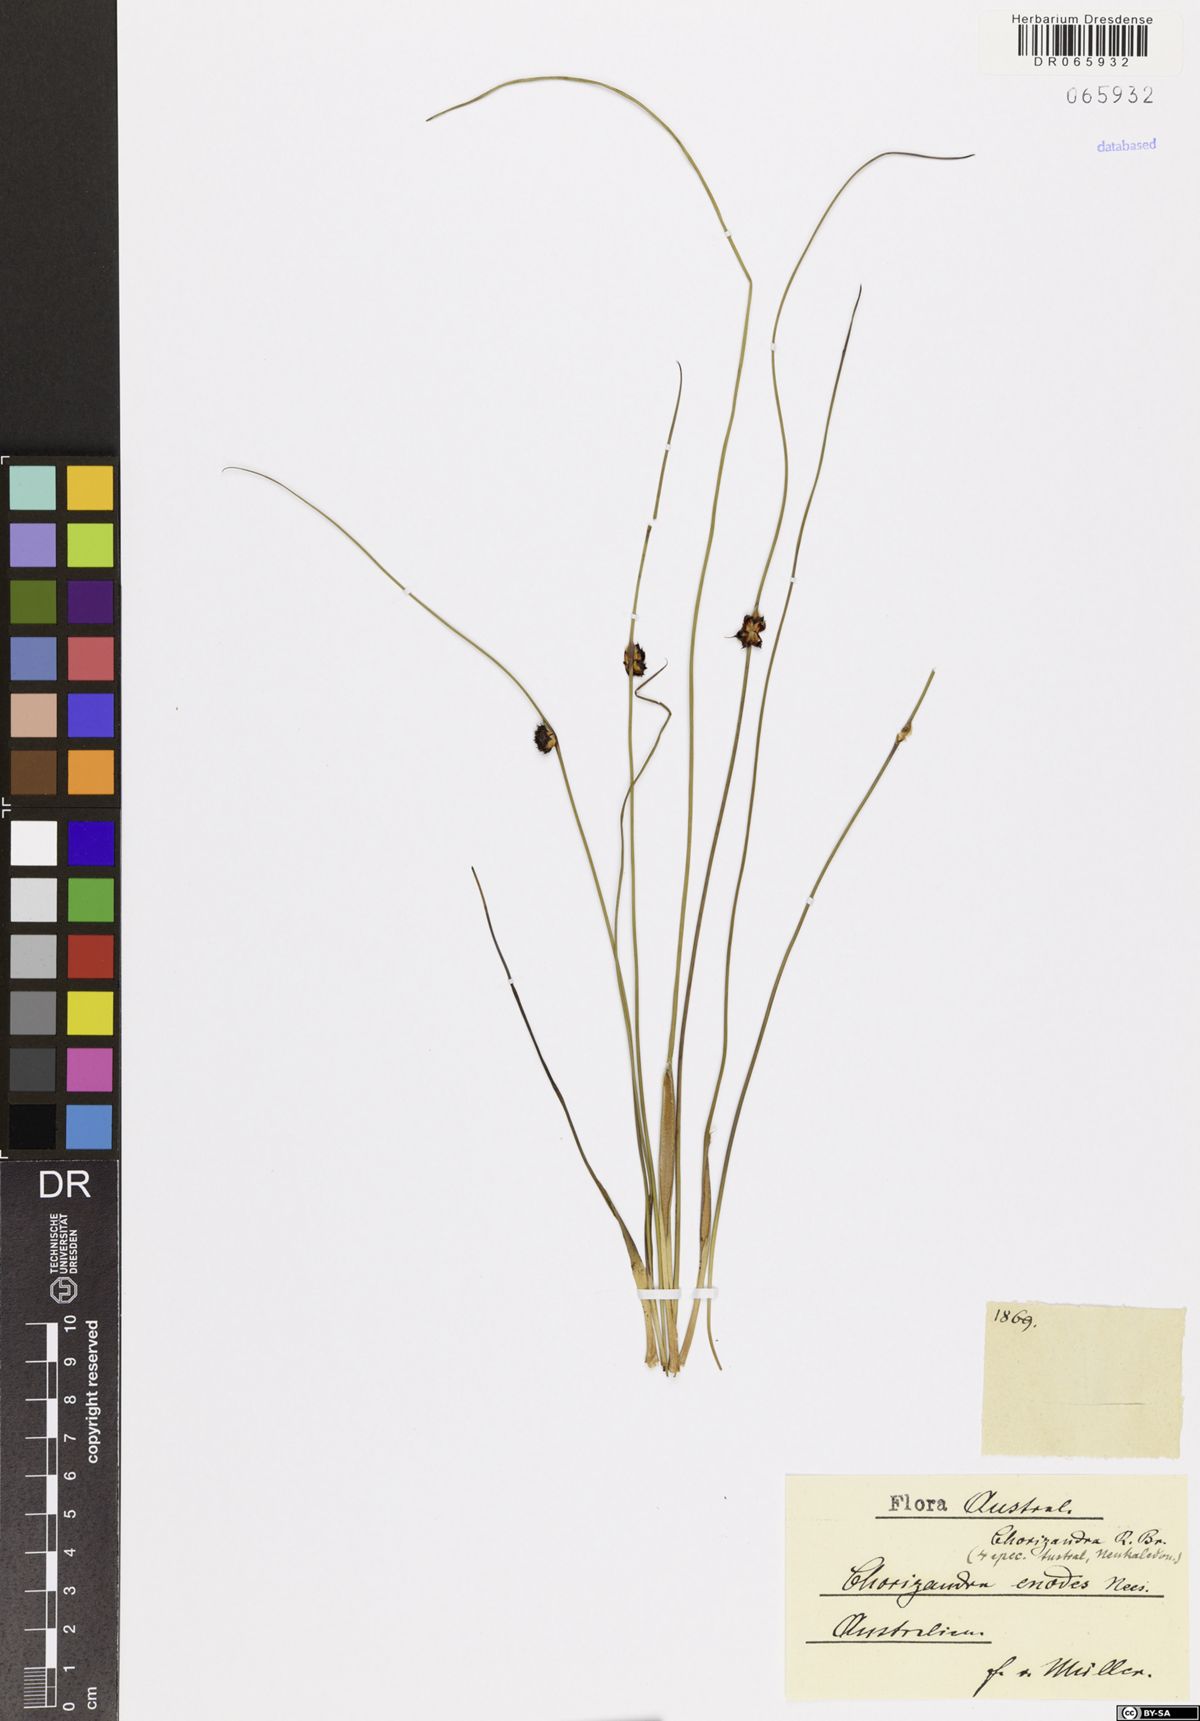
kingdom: Plantae
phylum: Tracheophyta
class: Liliopsida
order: Poales
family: Cyperaceae
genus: Chorizandra
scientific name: Chorizandra enodis
